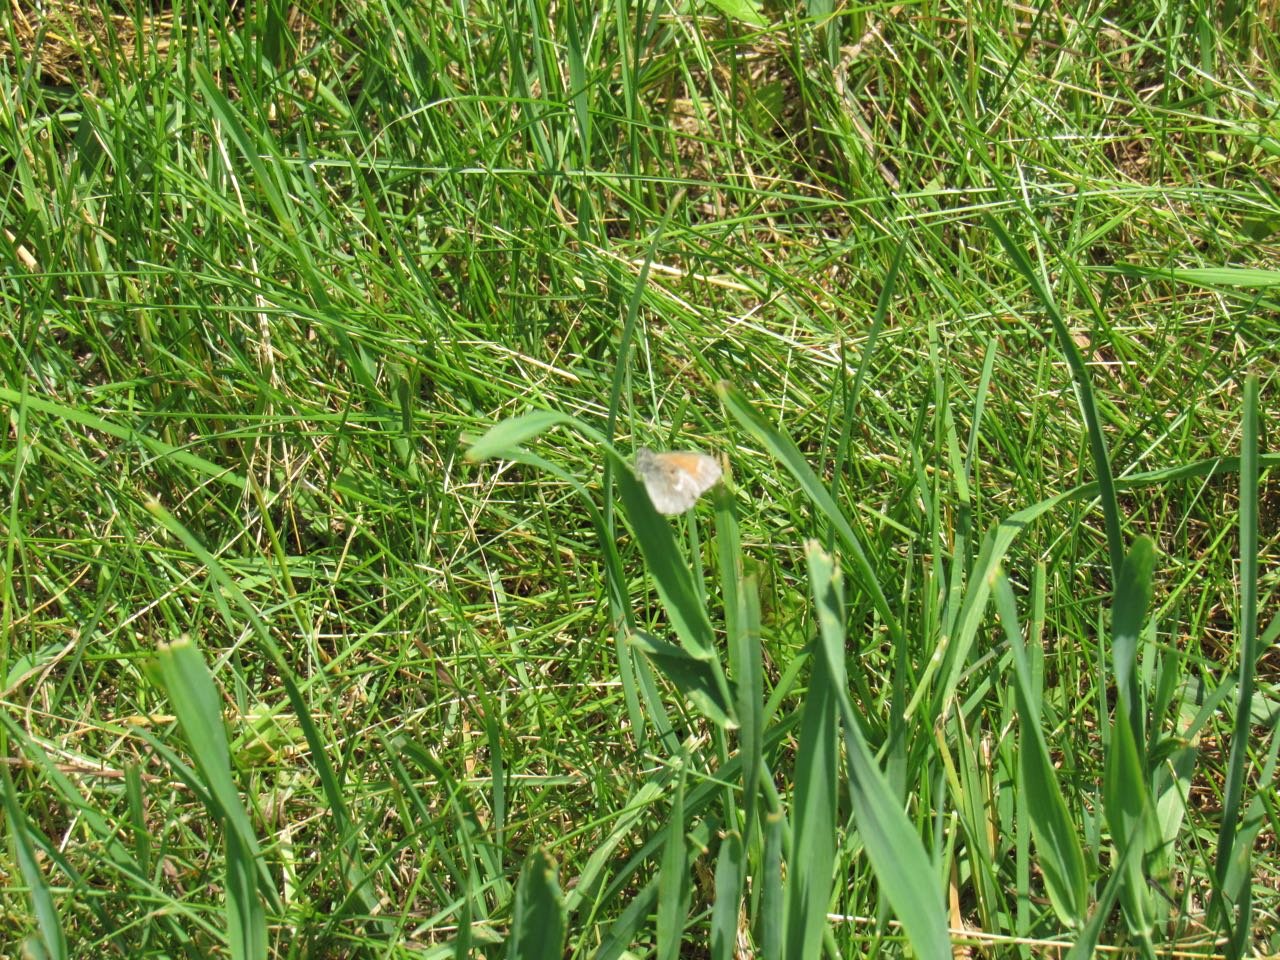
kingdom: Animalia
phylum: Arthropoda
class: Insecta
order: Lepidoptera
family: Nymphalidae
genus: Coenonympha
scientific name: Coenonympha tullia
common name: Large Heath
